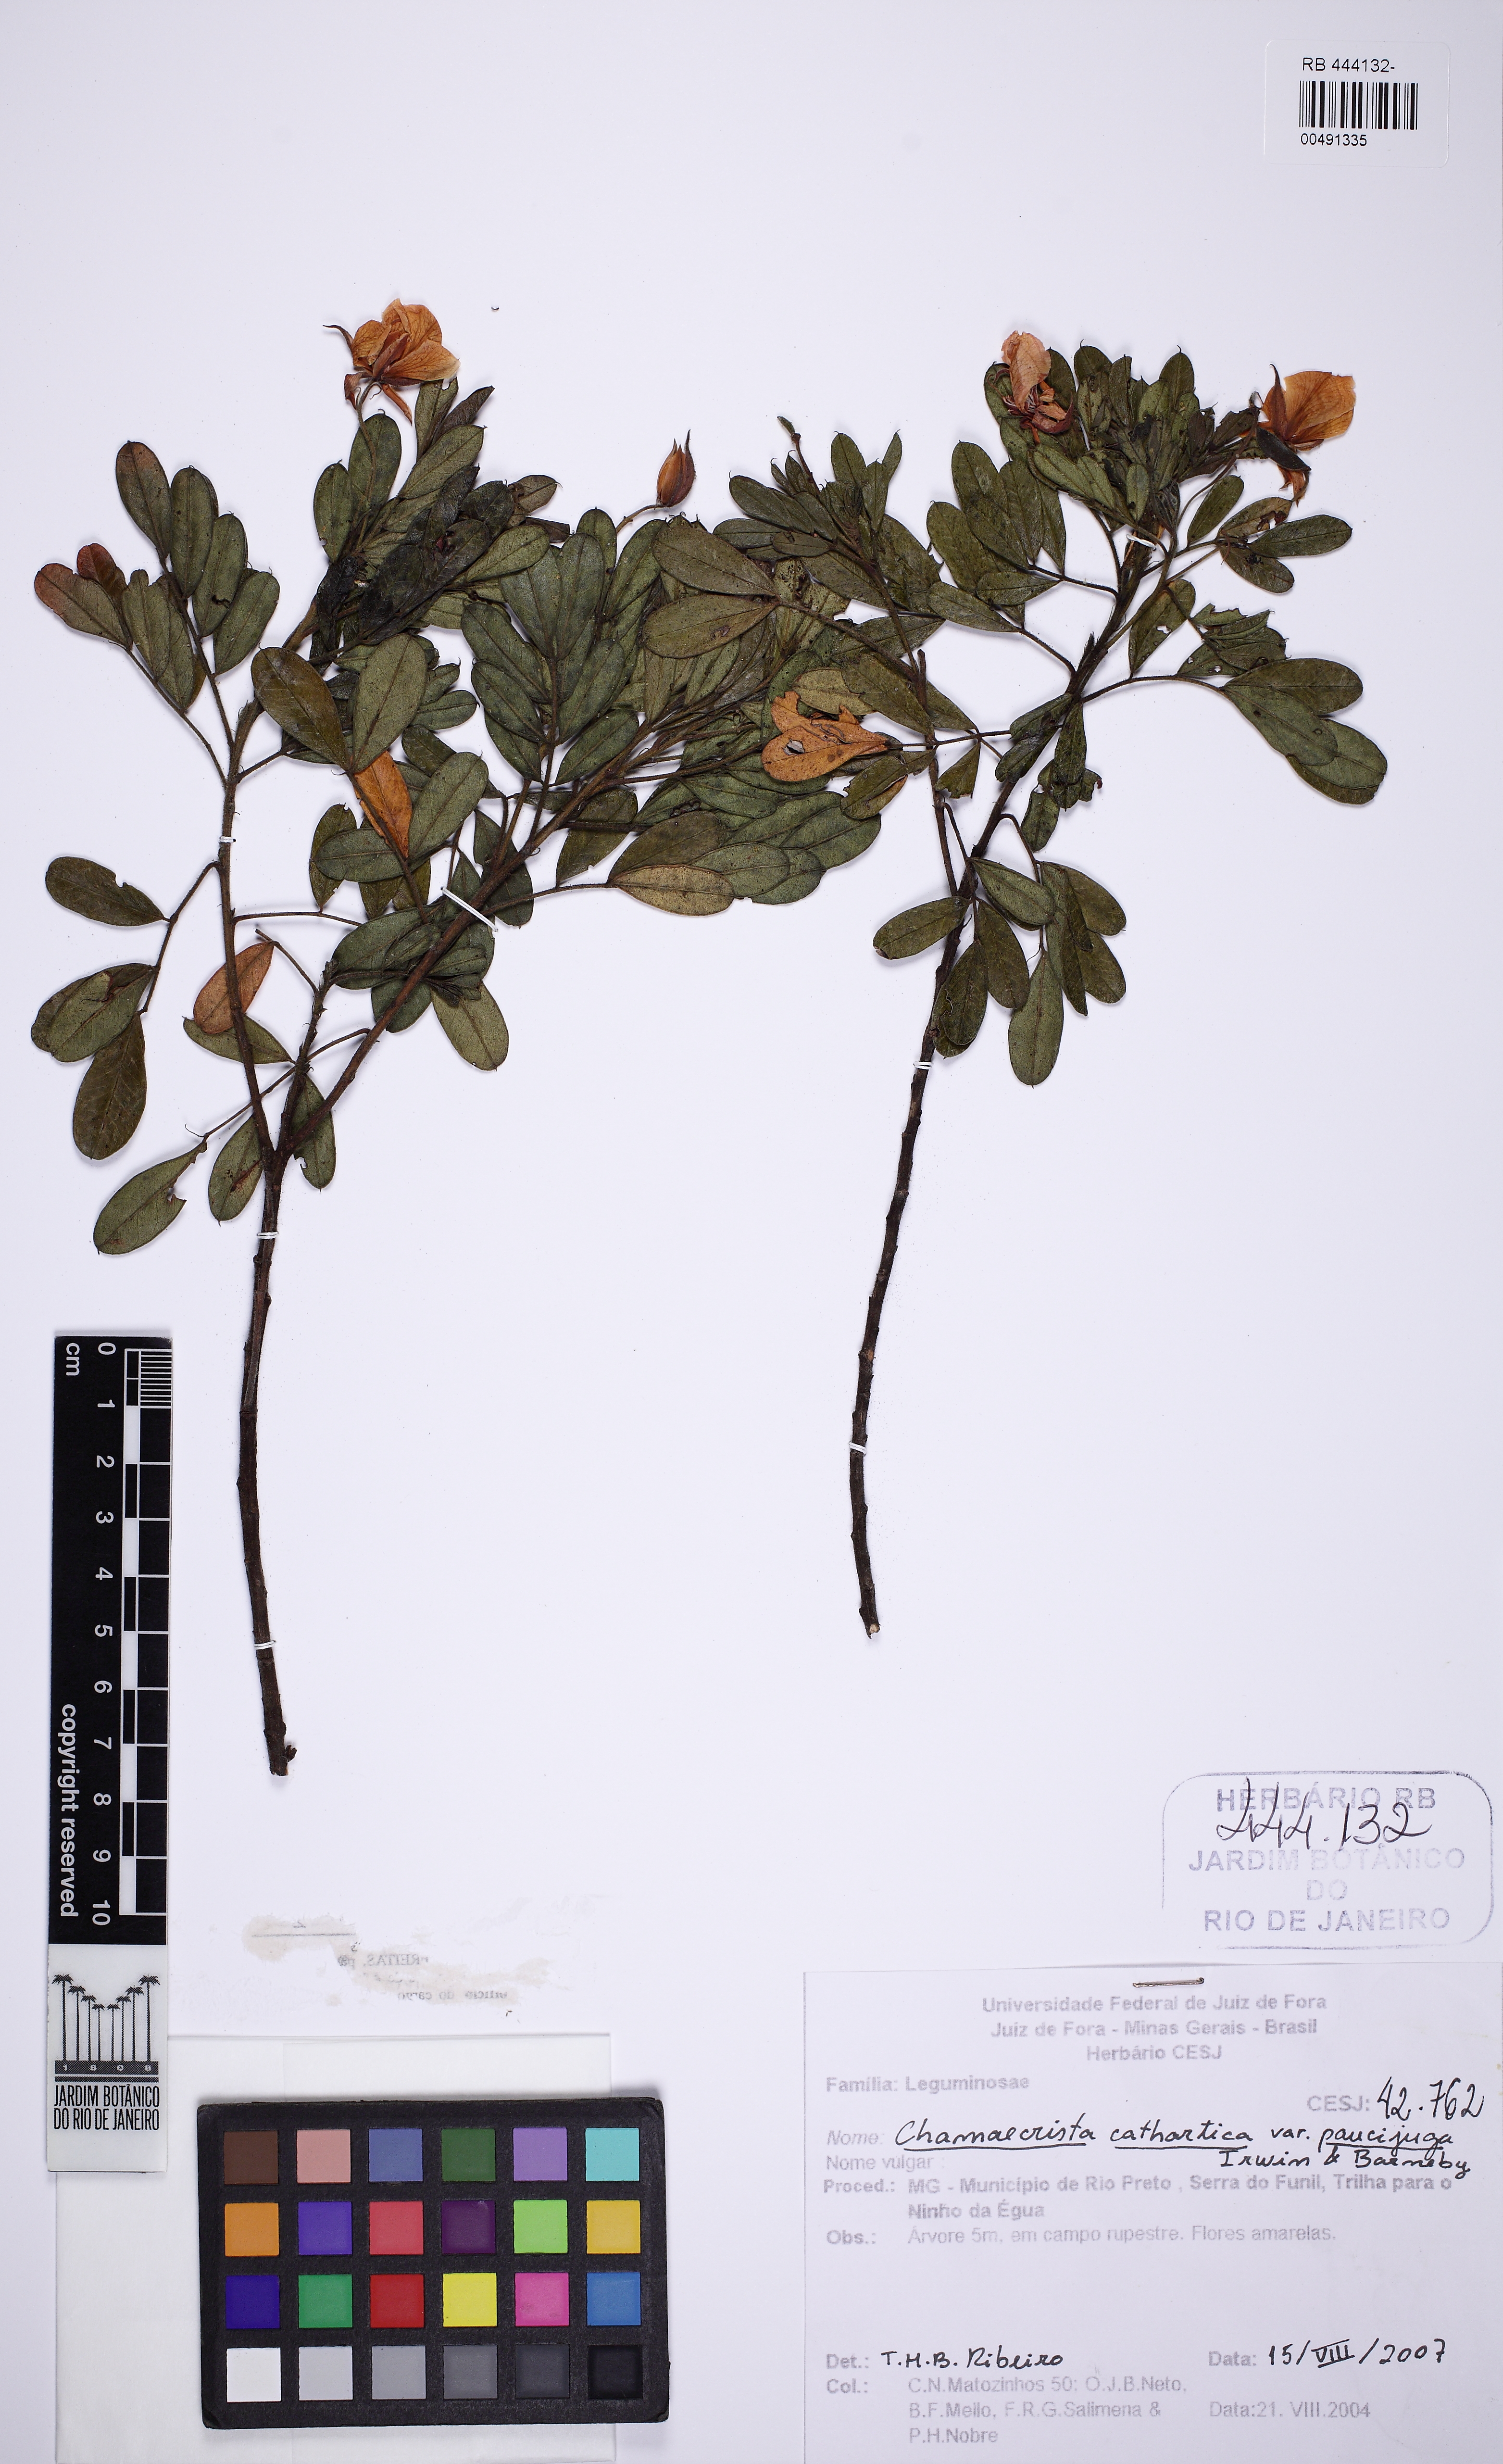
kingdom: Plantae
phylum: Tracheophyta
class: Magnoliopsida
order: Fabales
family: Fabaceae
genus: Chamaecrista
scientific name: Chamaecrista cathartica
